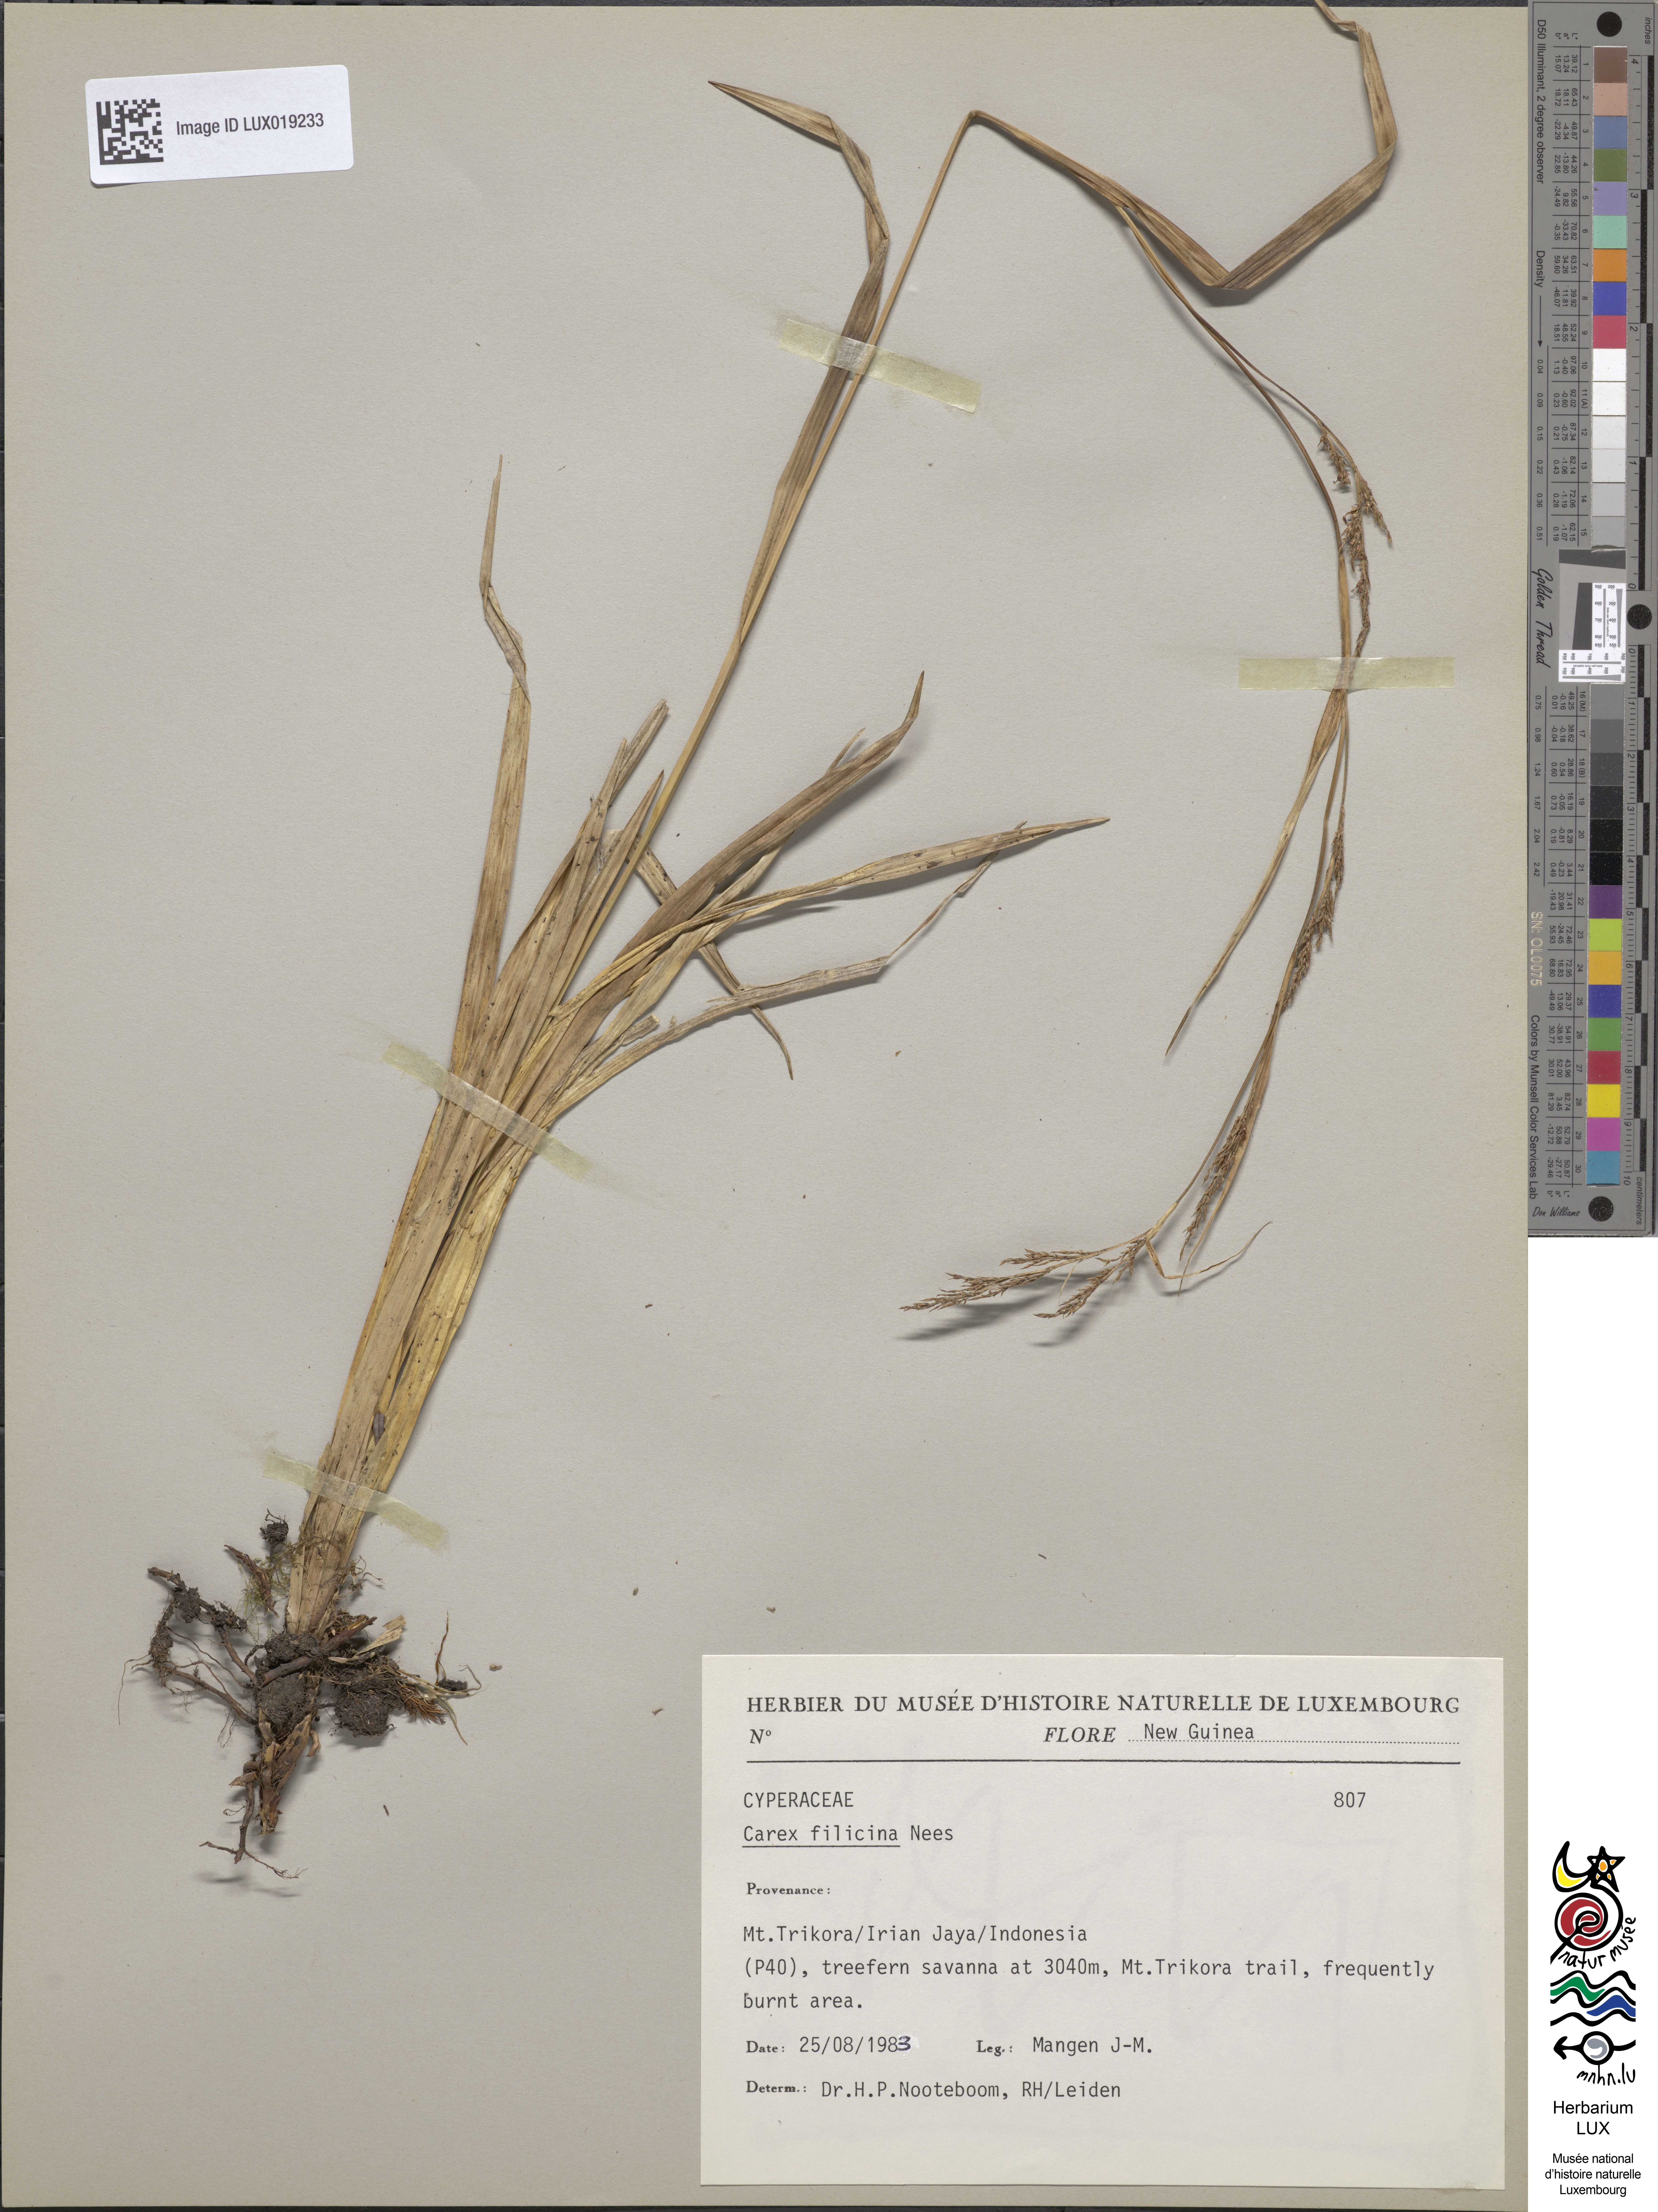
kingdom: Plantae
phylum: Tracheophyta
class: Liliopsida
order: Poales
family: Cyperaceae
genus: Carex
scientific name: Carex filicina
